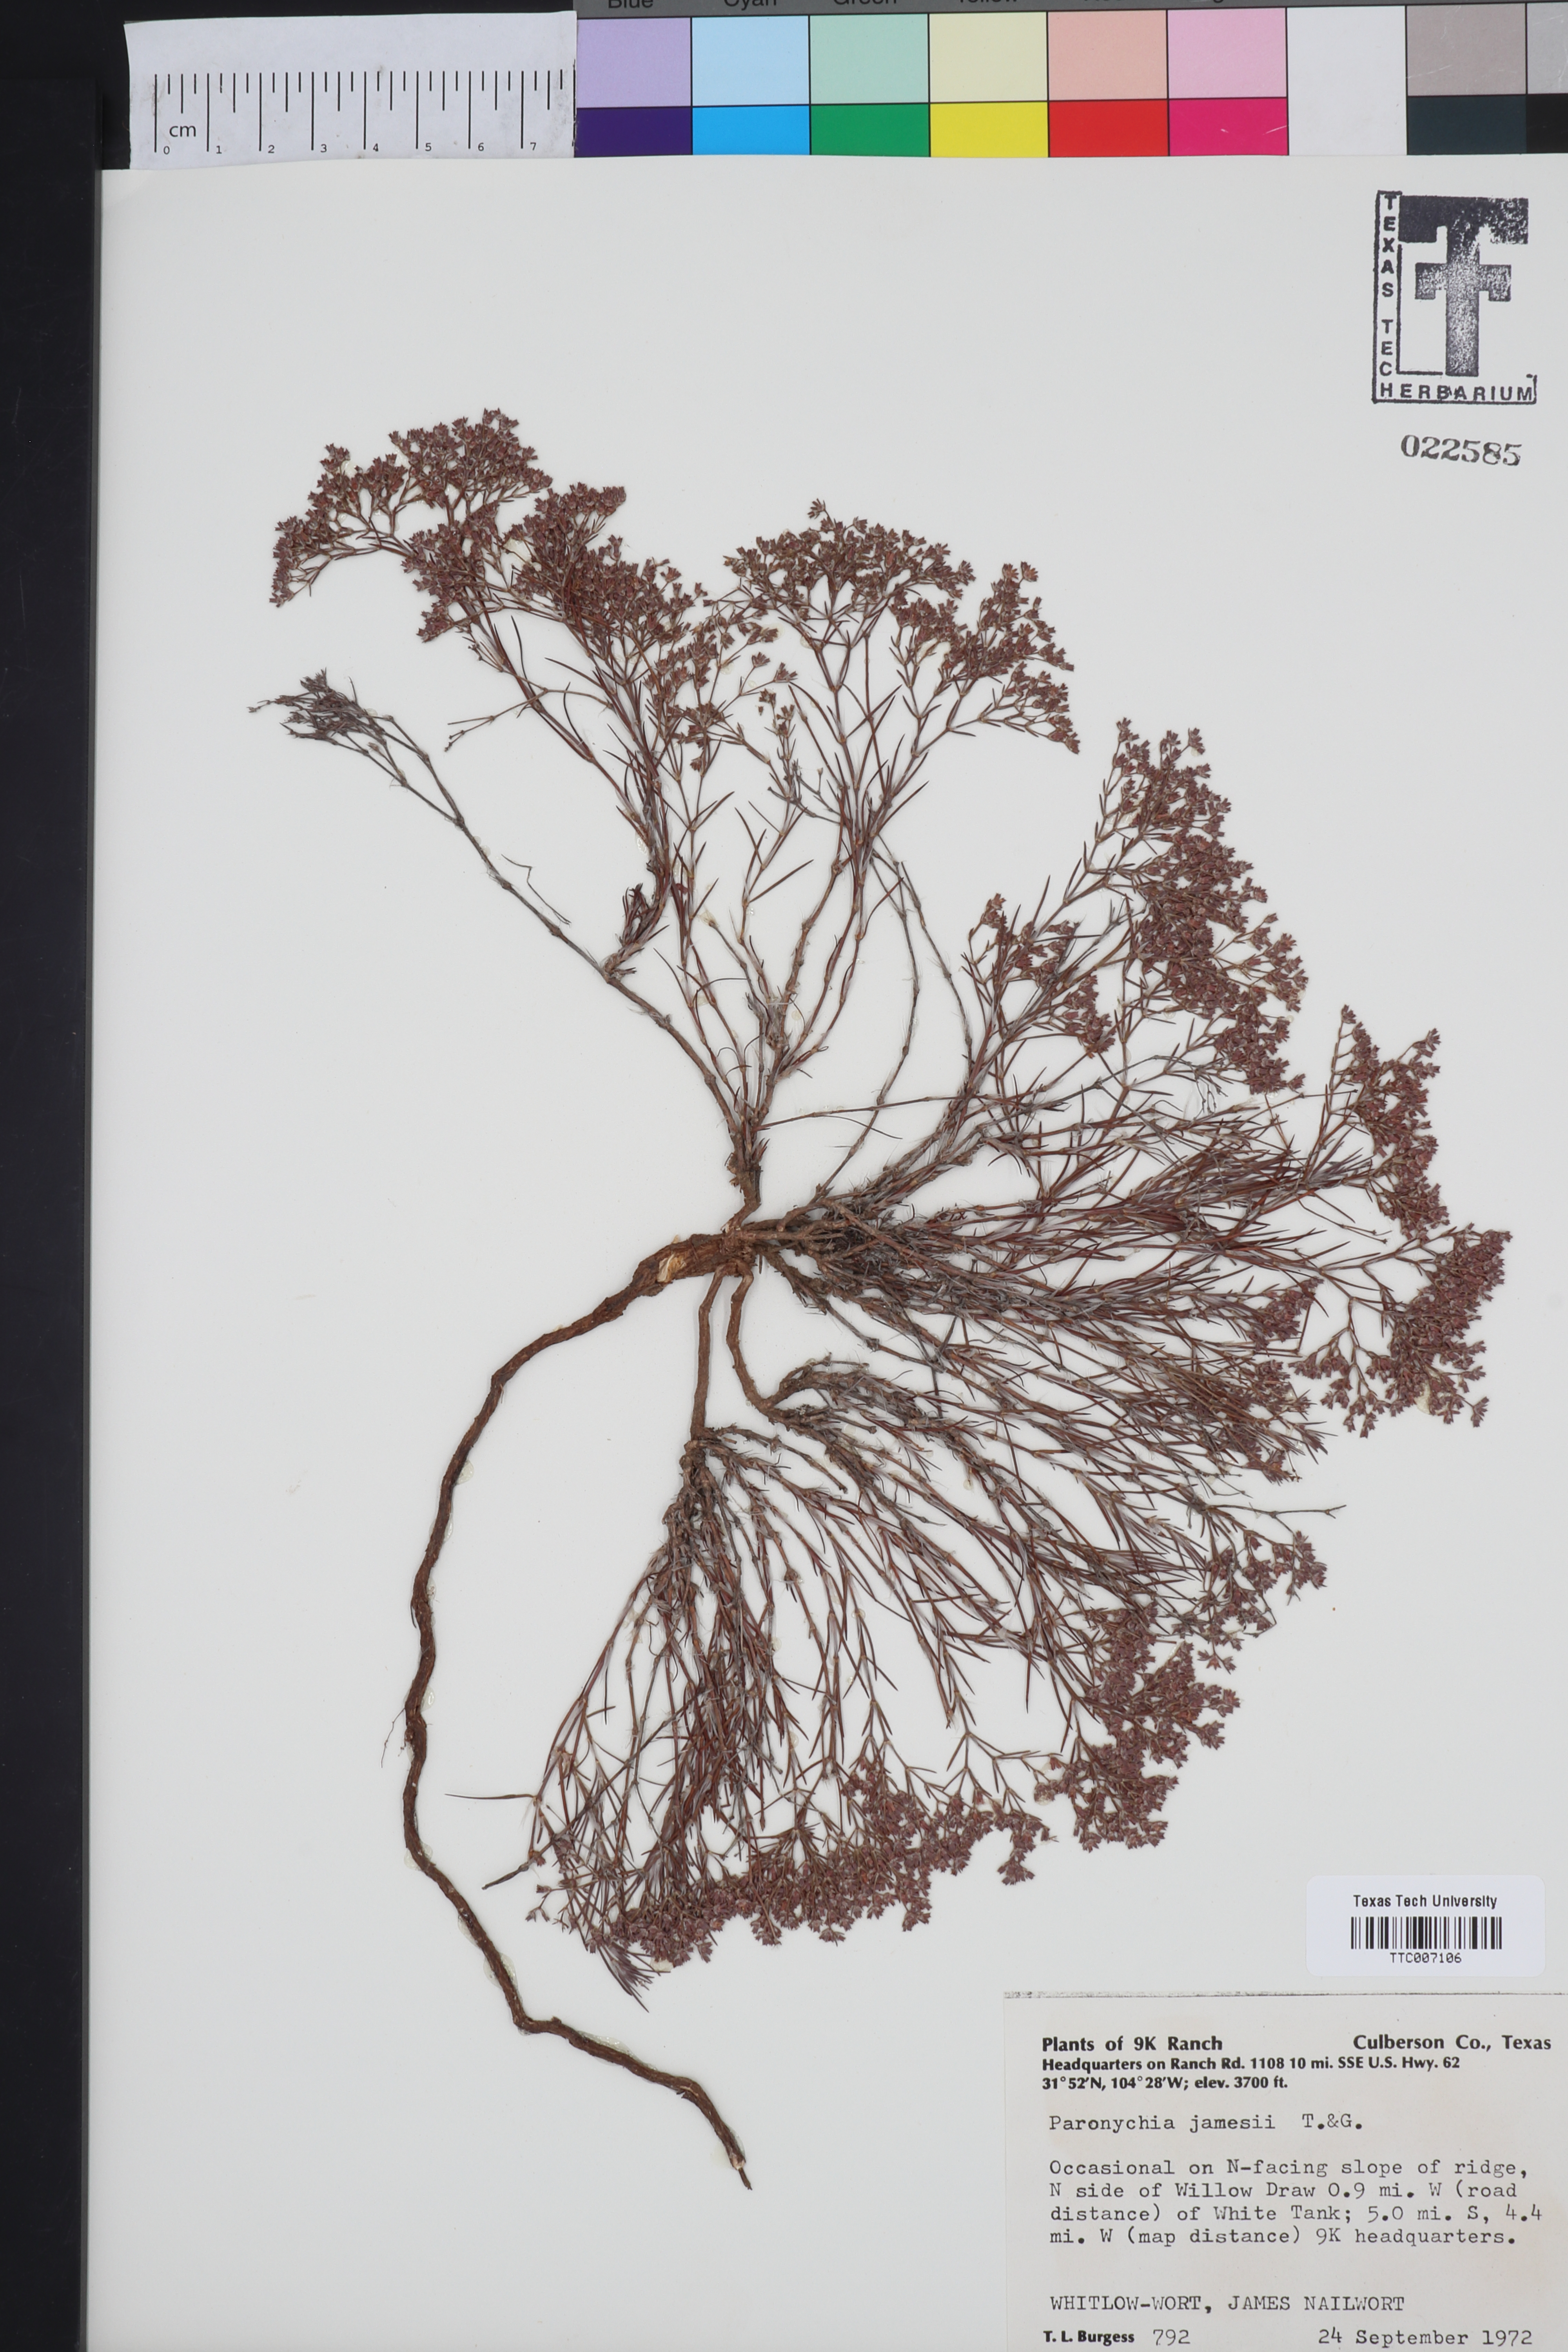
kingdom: Plantae
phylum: Tracheophyta
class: Magnoliopsida
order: Caryophyllales
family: Caryophyllaceae
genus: Paronychia
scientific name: Paronychia jamesii
